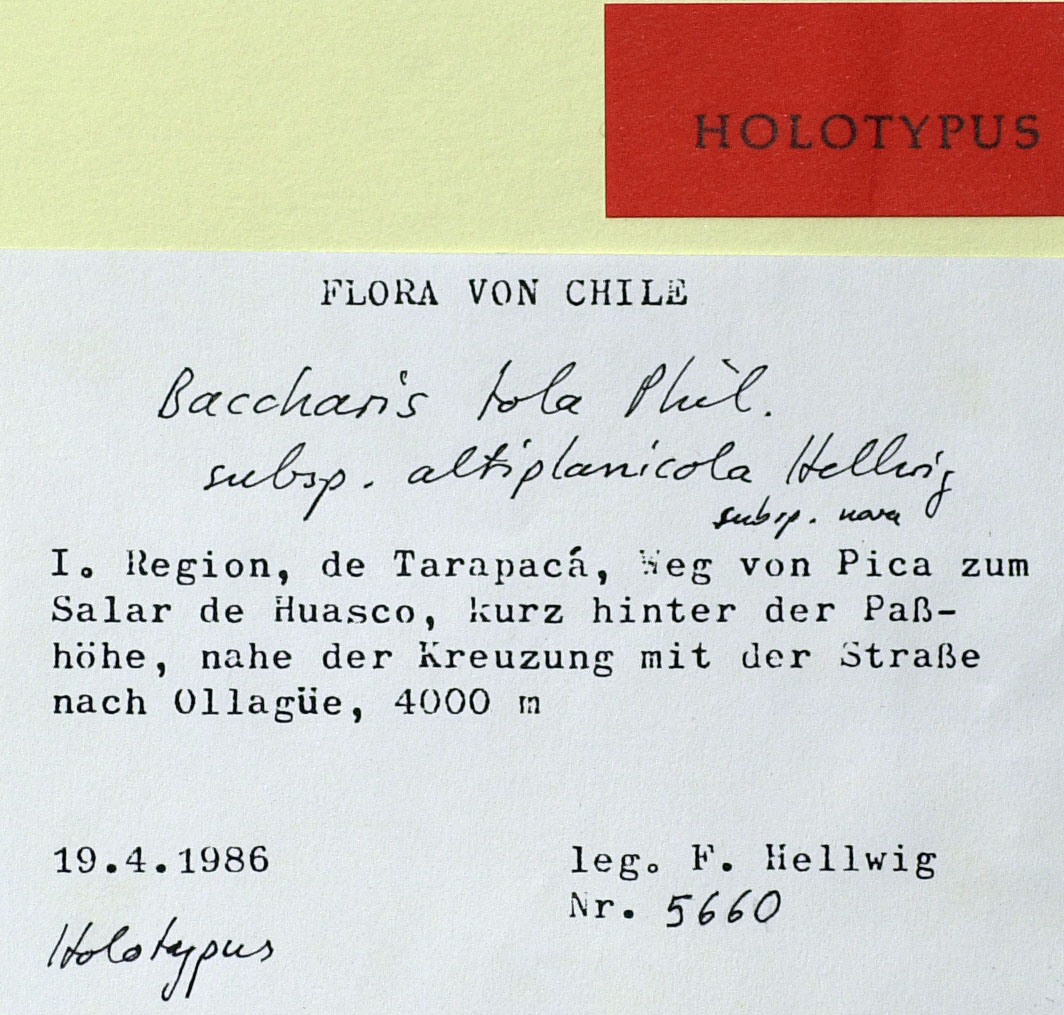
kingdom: Plantae
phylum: Tracheophyta
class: Magnoliopsida
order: Asterales
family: Asteraceae
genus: Baccharis
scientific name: Baccharis viscosissima
